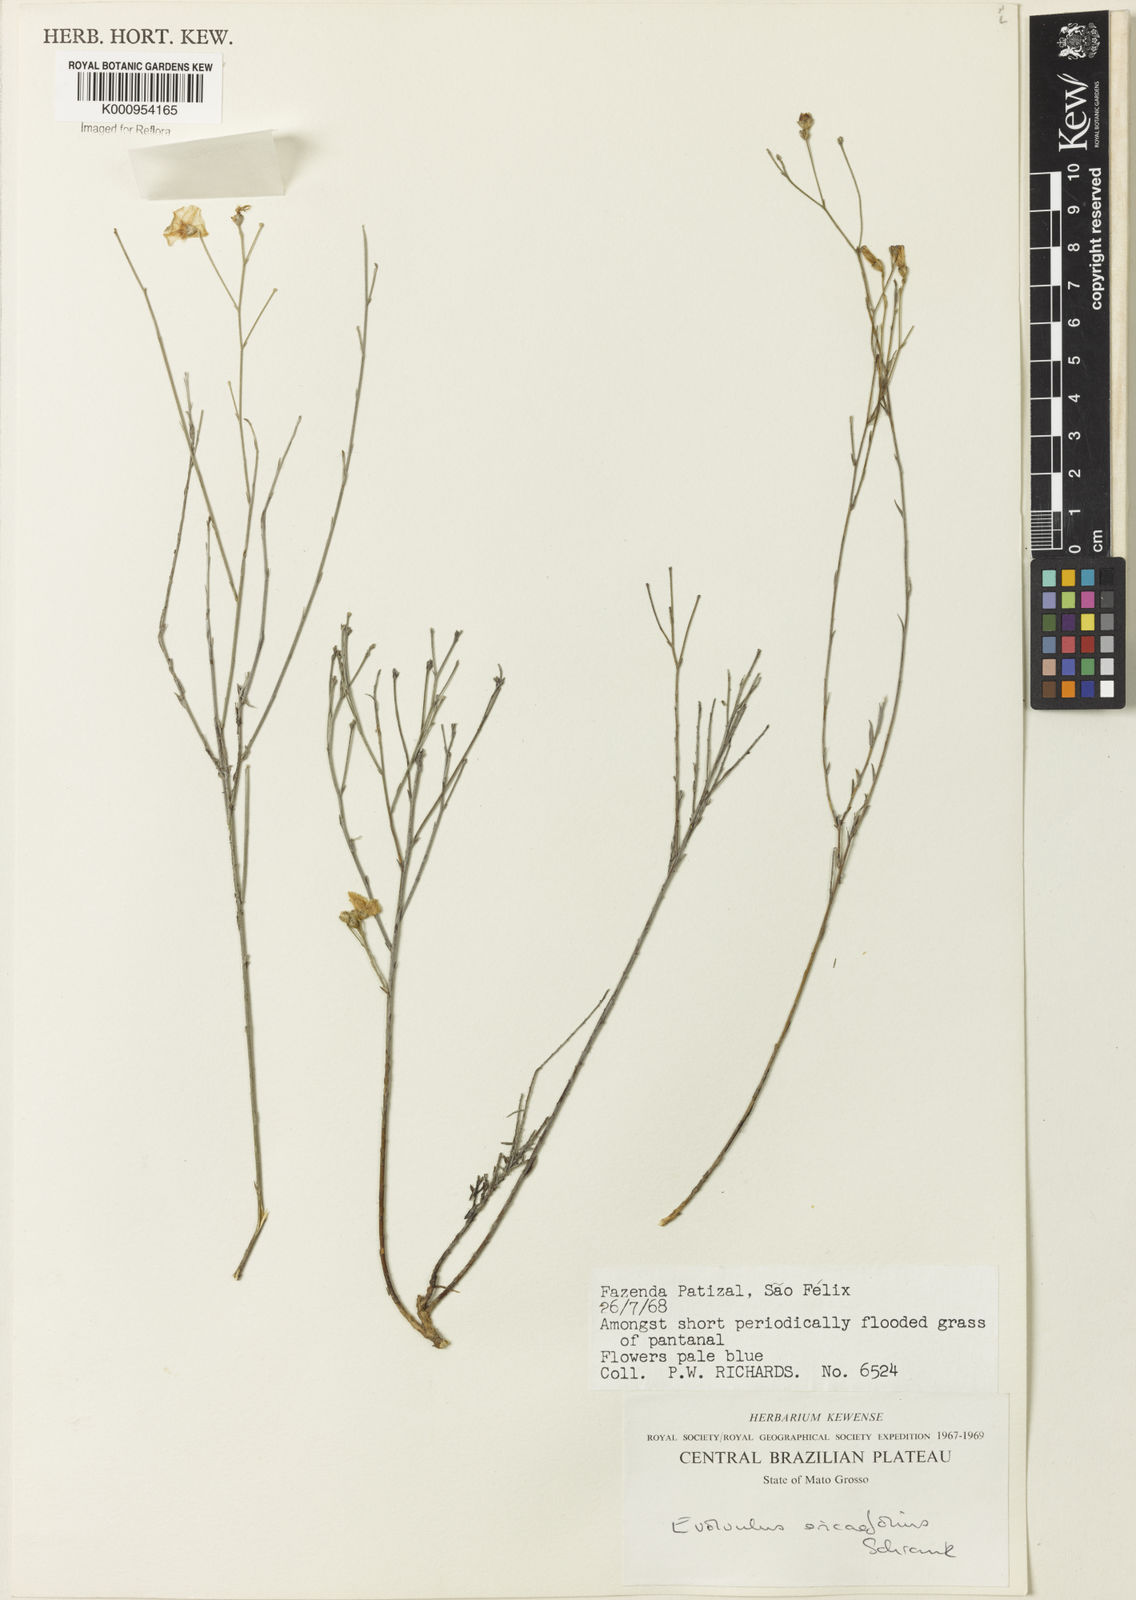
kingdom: Plantae
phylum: Tracheophyta
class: Magnoliopsida
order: Solanales
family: Convolvulaceae
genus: Evolvulus
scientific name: Evolvulus ericifolius
